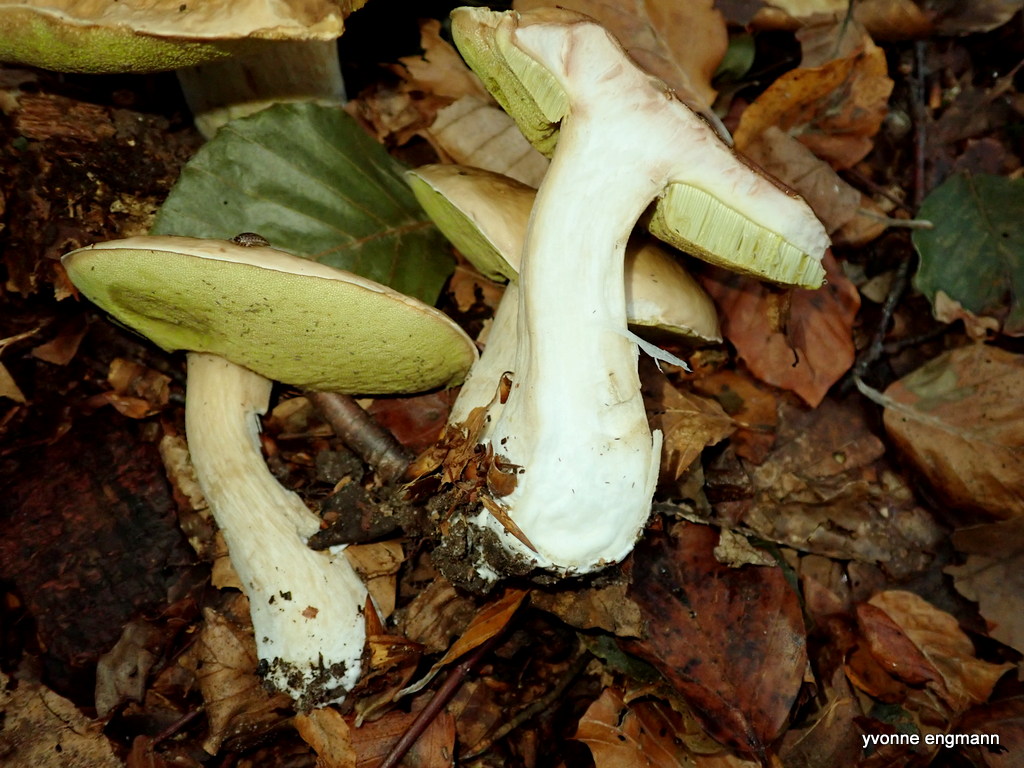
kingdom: Fungi
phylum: Basidiomycota
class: Agaricomycetes
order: Boletales
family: Boletaceae
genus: Boletus
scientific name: Boletus edulis
